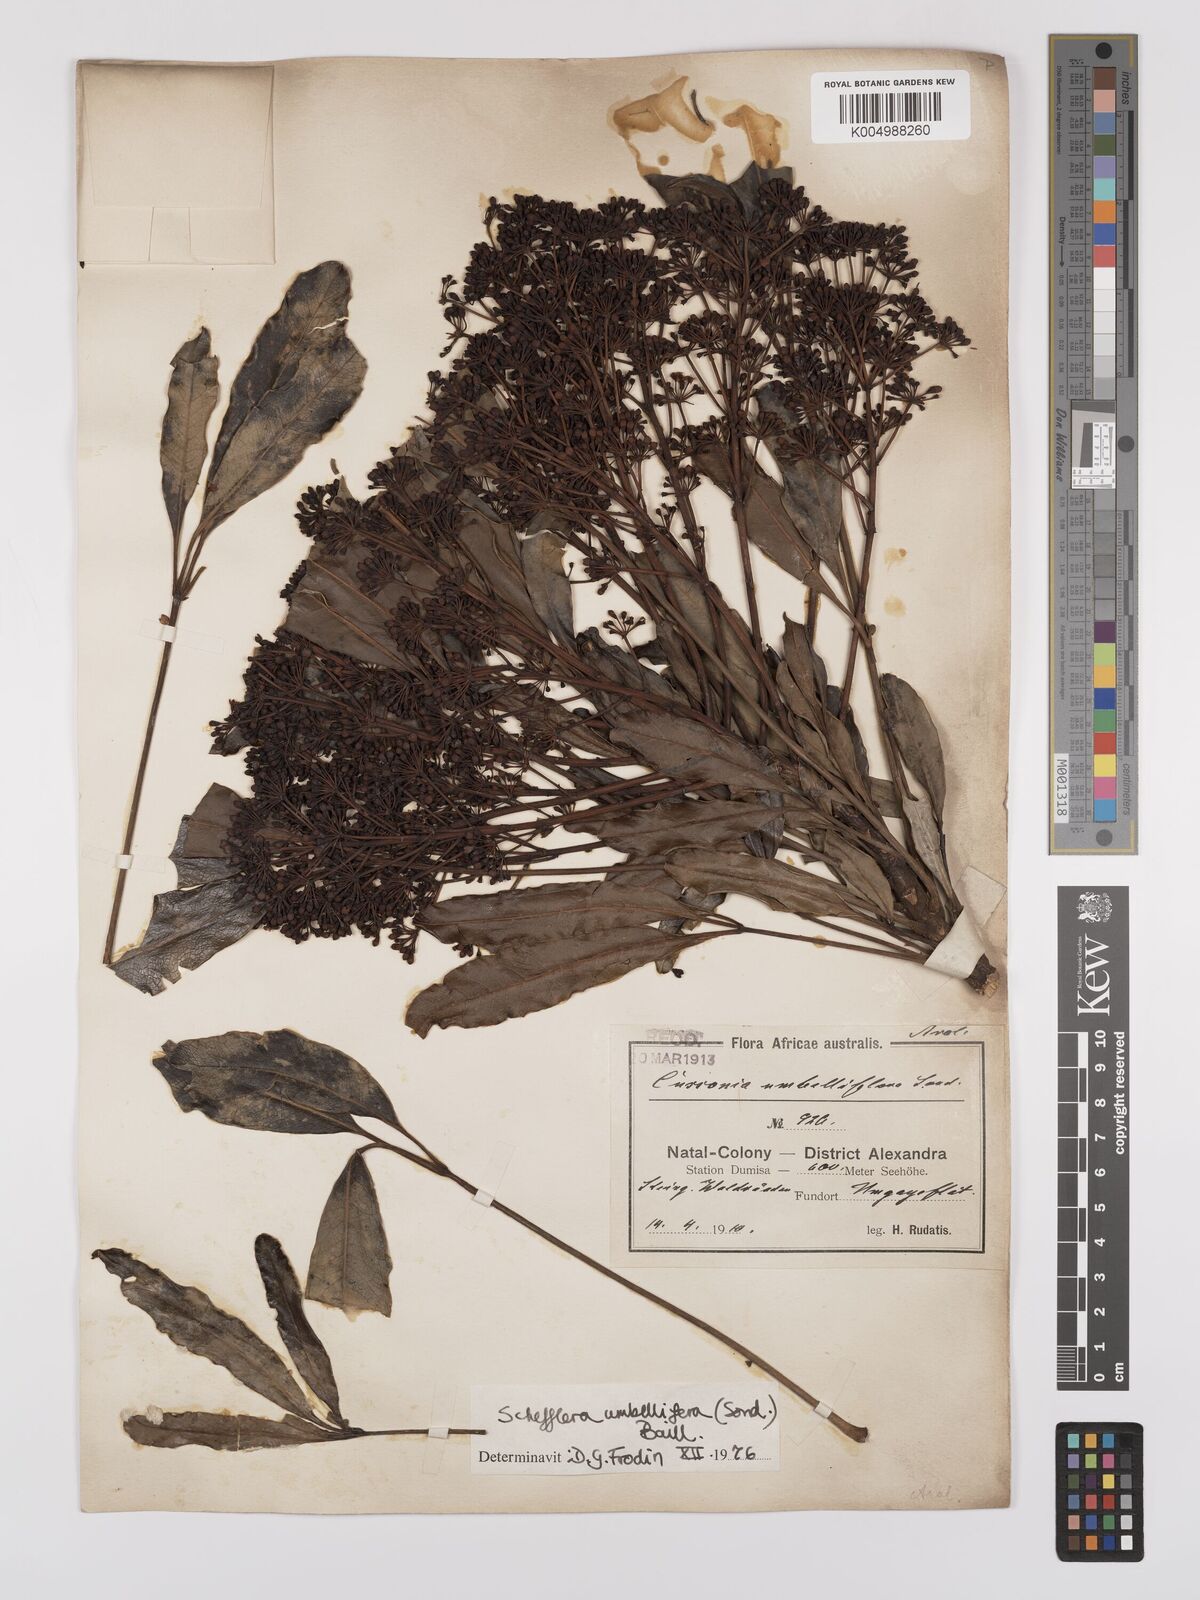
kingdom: Plantae
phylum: Tracheophyta
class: Magnoliopsida
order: Apiales
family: Araliaceae
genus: Neocussonia
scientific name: Neocussonia umbellifera
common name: False cabbage tree
